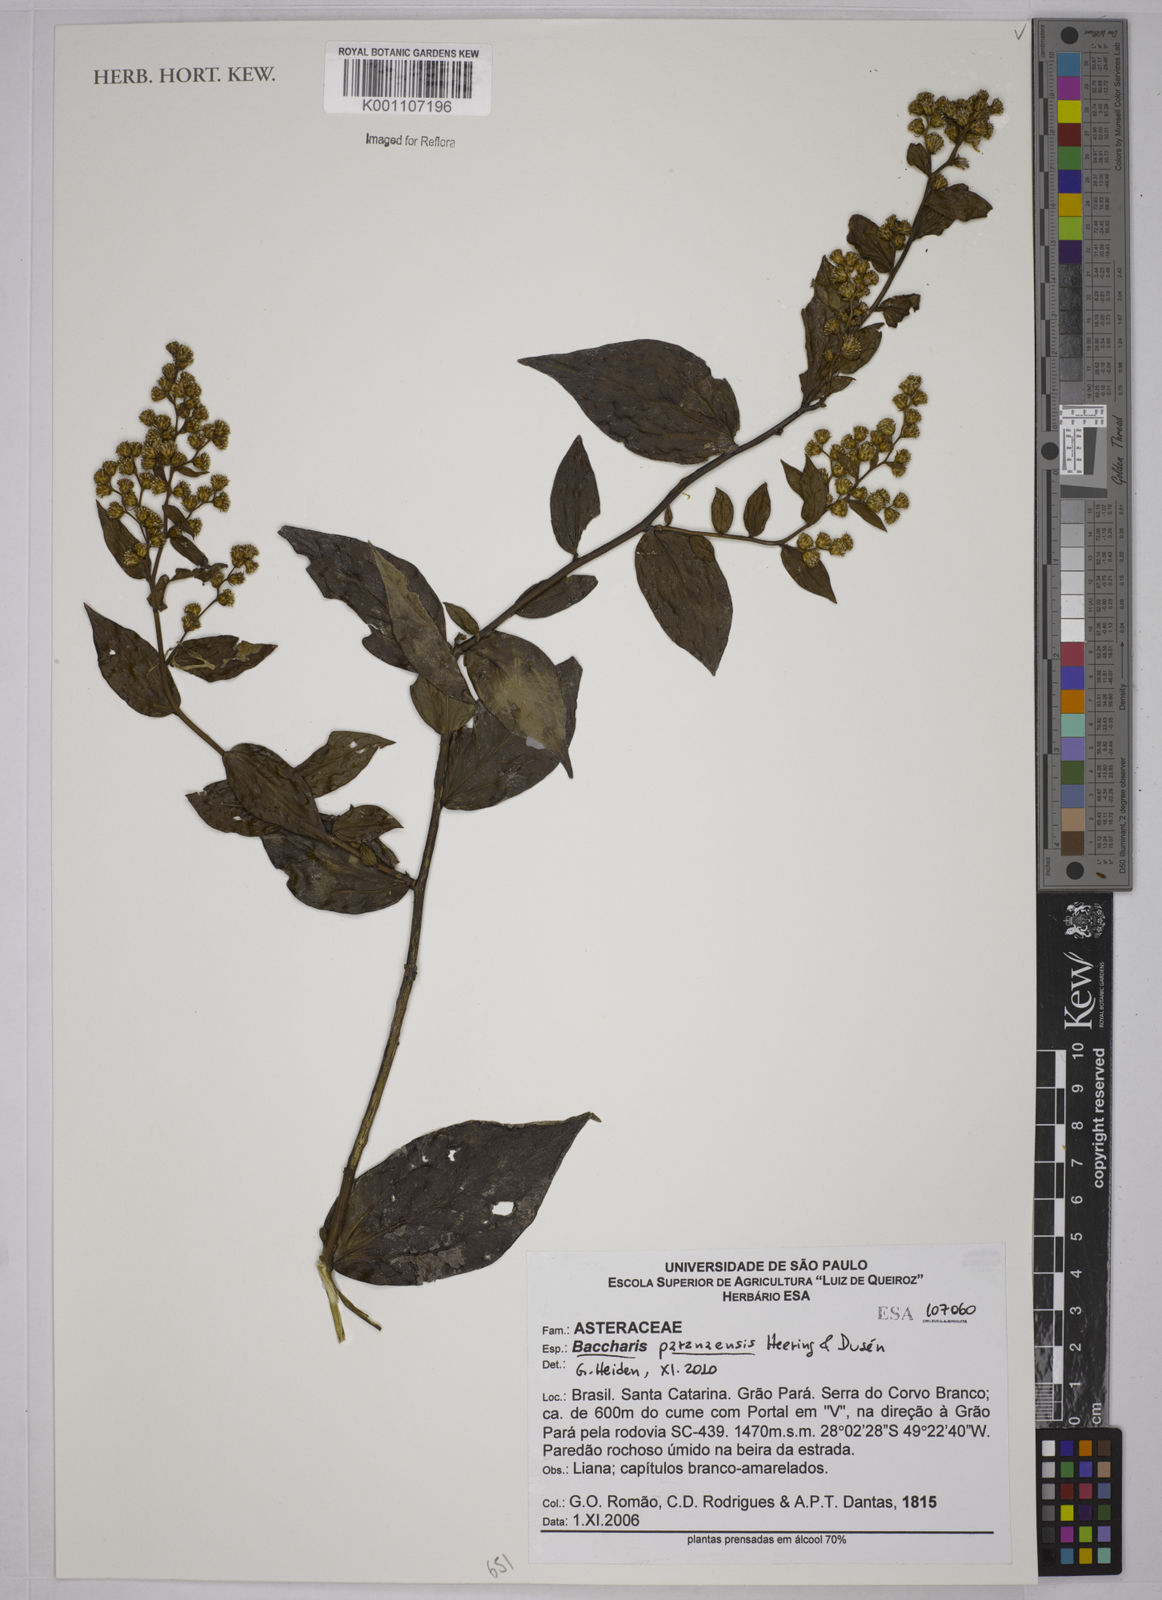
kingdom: Plantae
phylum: Tracheophyta
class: Magnoliopsida
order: Asterales
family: Asteraceae
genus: Baccharis
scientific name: Baccharis
